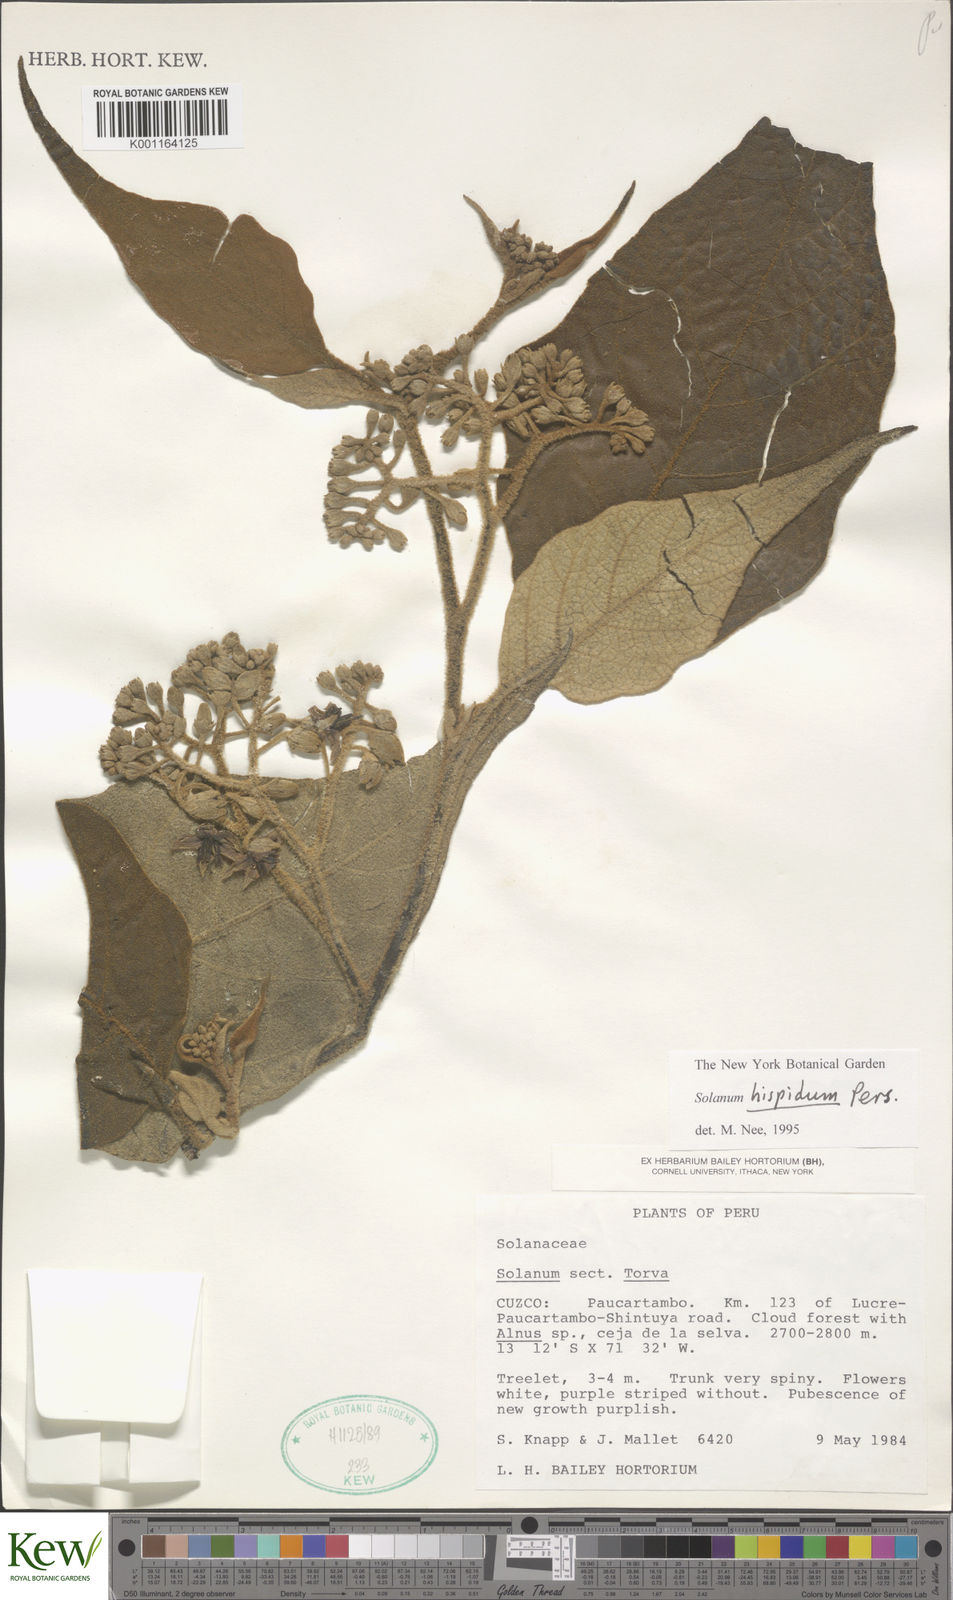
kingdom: Plantae
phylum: Tracheophyta
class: Magnoliopsida
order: Solanales
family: Solanaceae
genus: Solanum
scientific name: Solanum asperolanatum
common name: Devil's-fig
